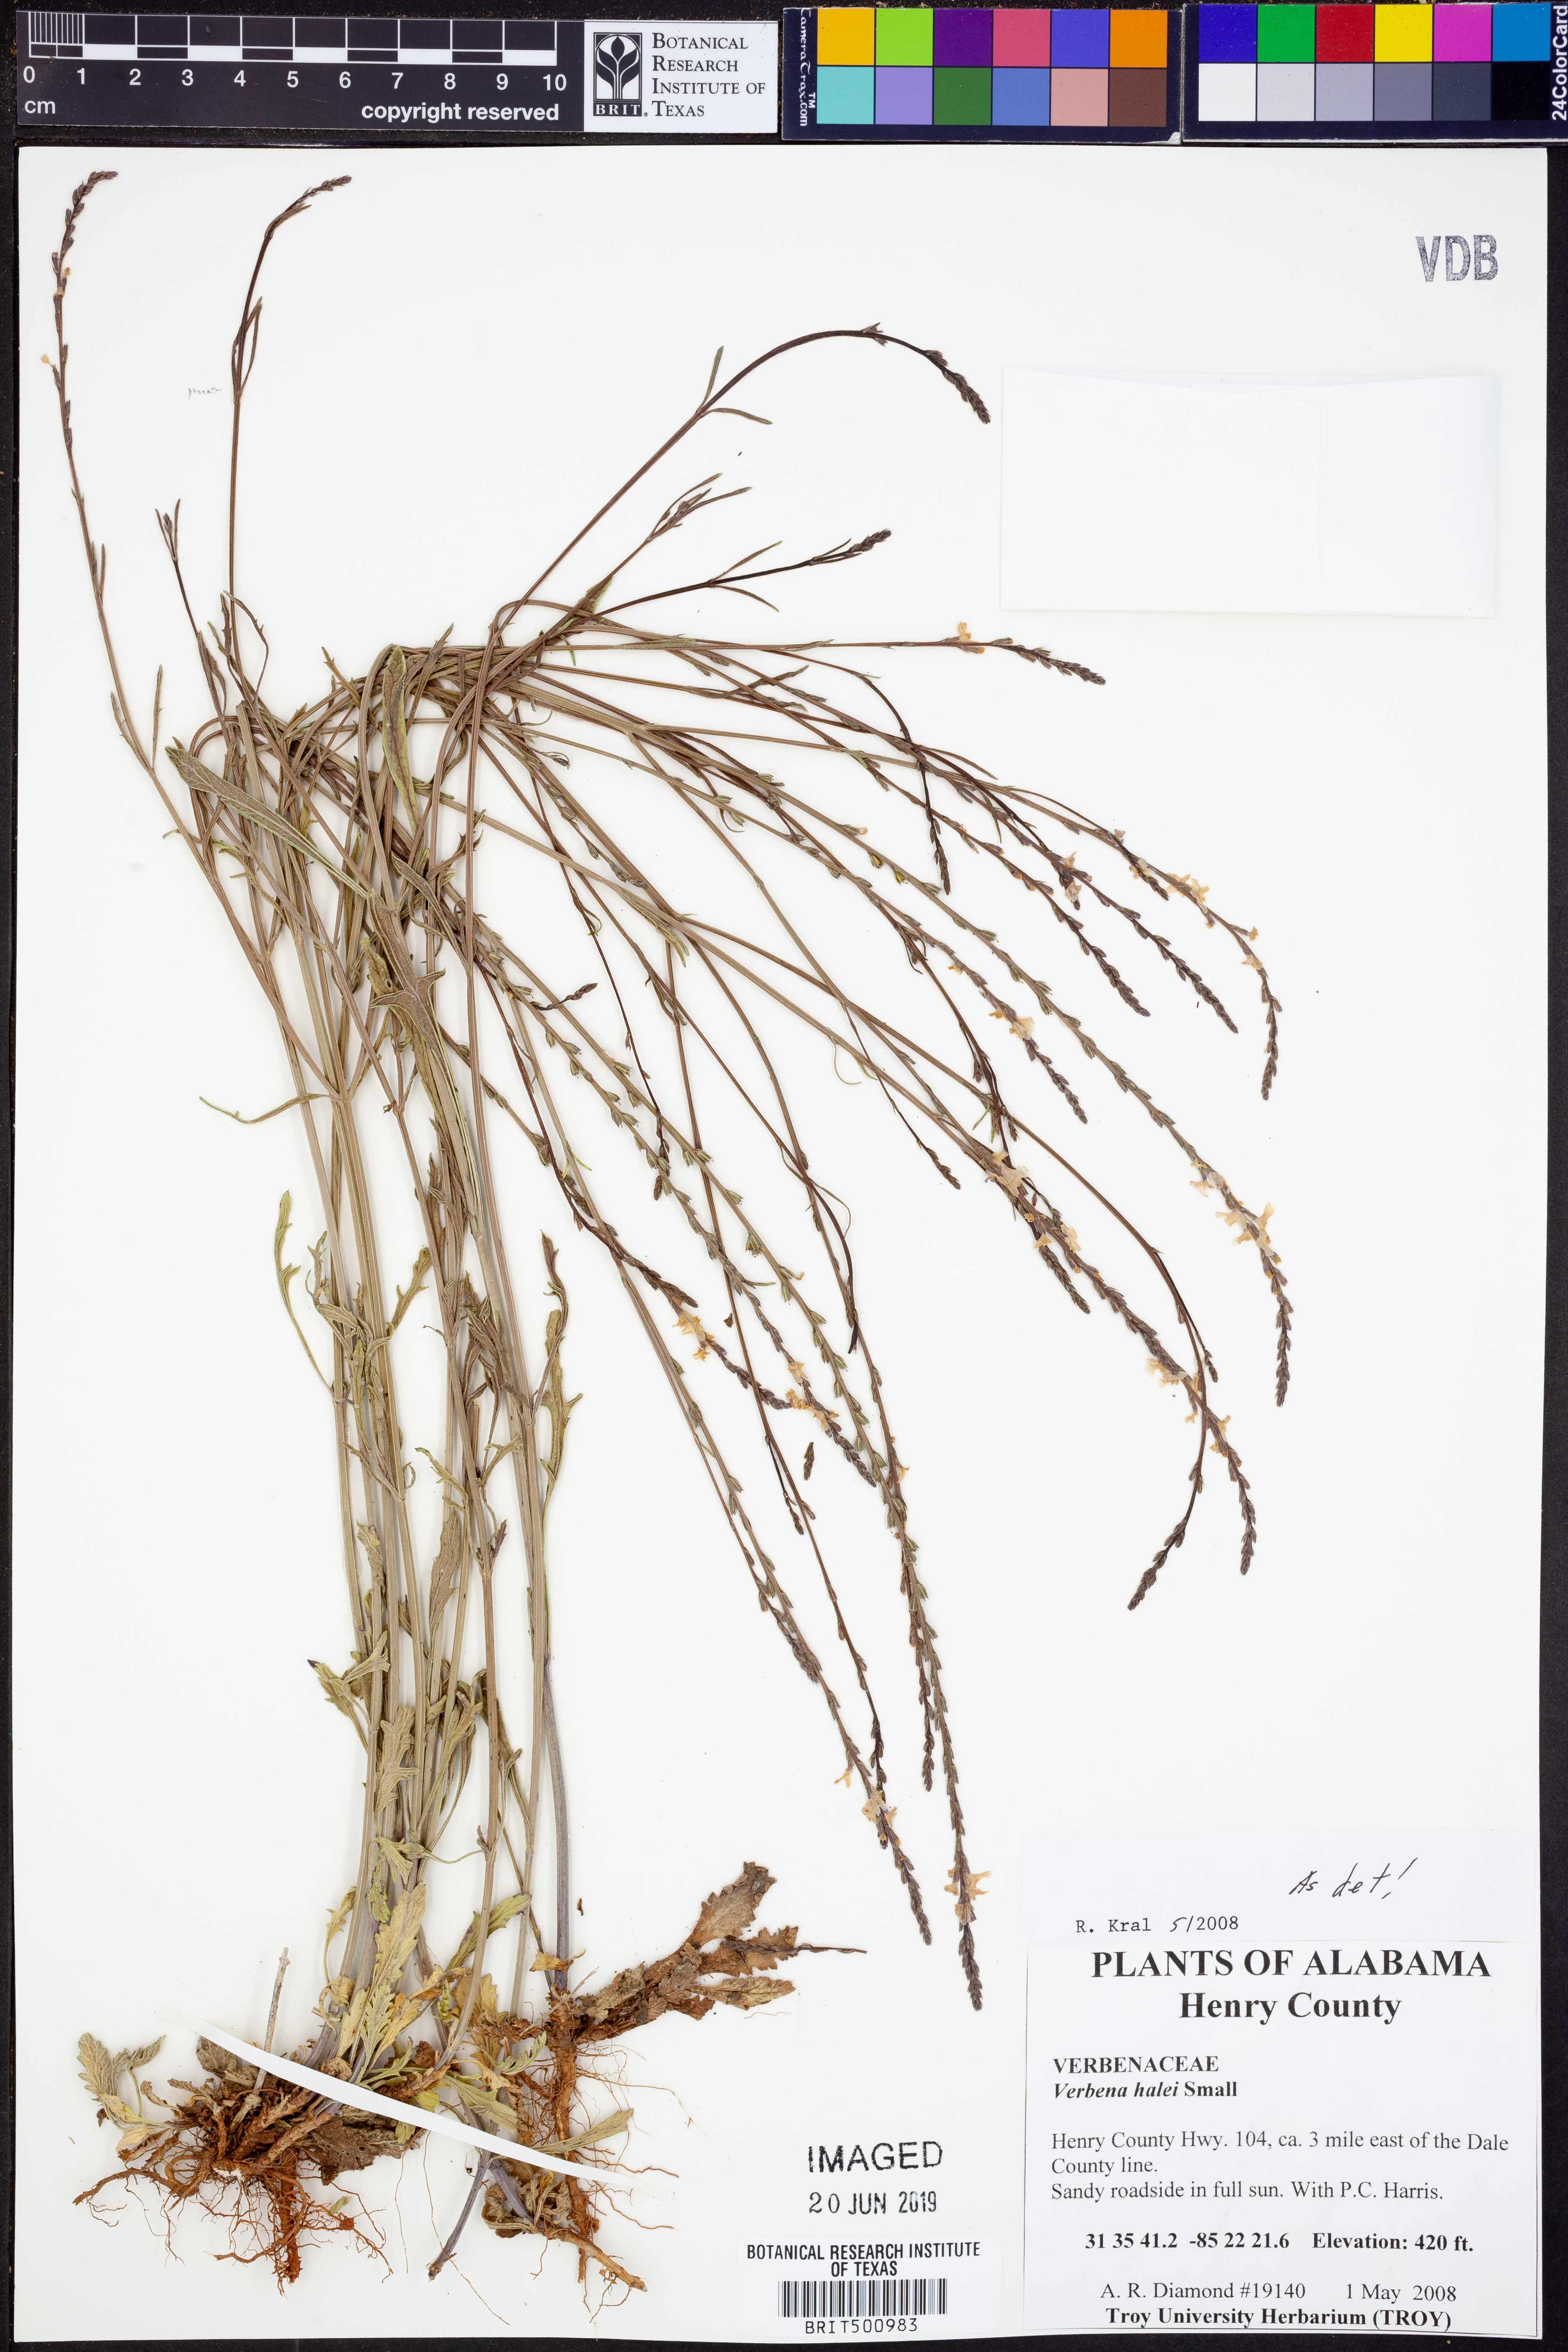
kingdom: Plantae
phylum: Tracheophyta
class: Magnoliopsida
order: Lamiales
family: Verbenaceae
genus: Verbena
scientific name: Verbena halei
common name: Texas vervain
